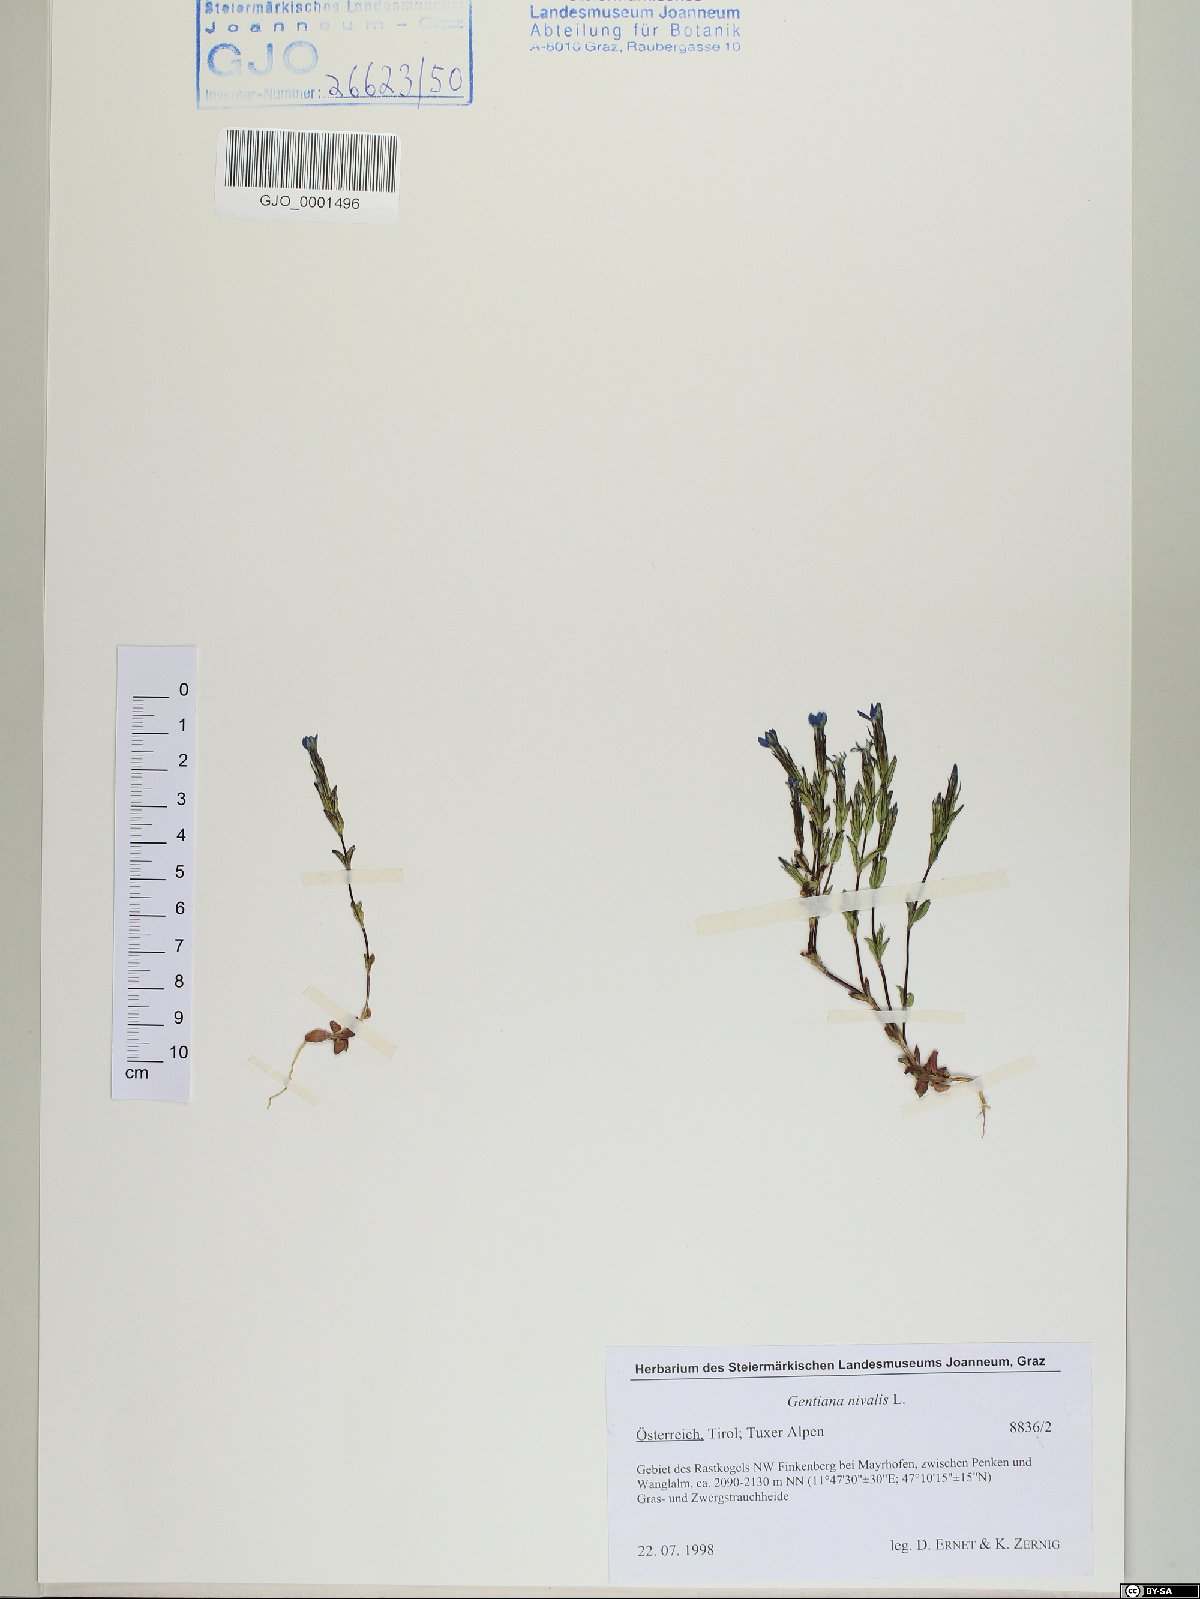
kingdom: Plantae
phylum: Tracheophyta
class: Magnoliopsida
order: Gentianales
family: Gentianaceae
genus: Gentiana
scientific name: Gentiana nivalis
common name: Alpine gentian
